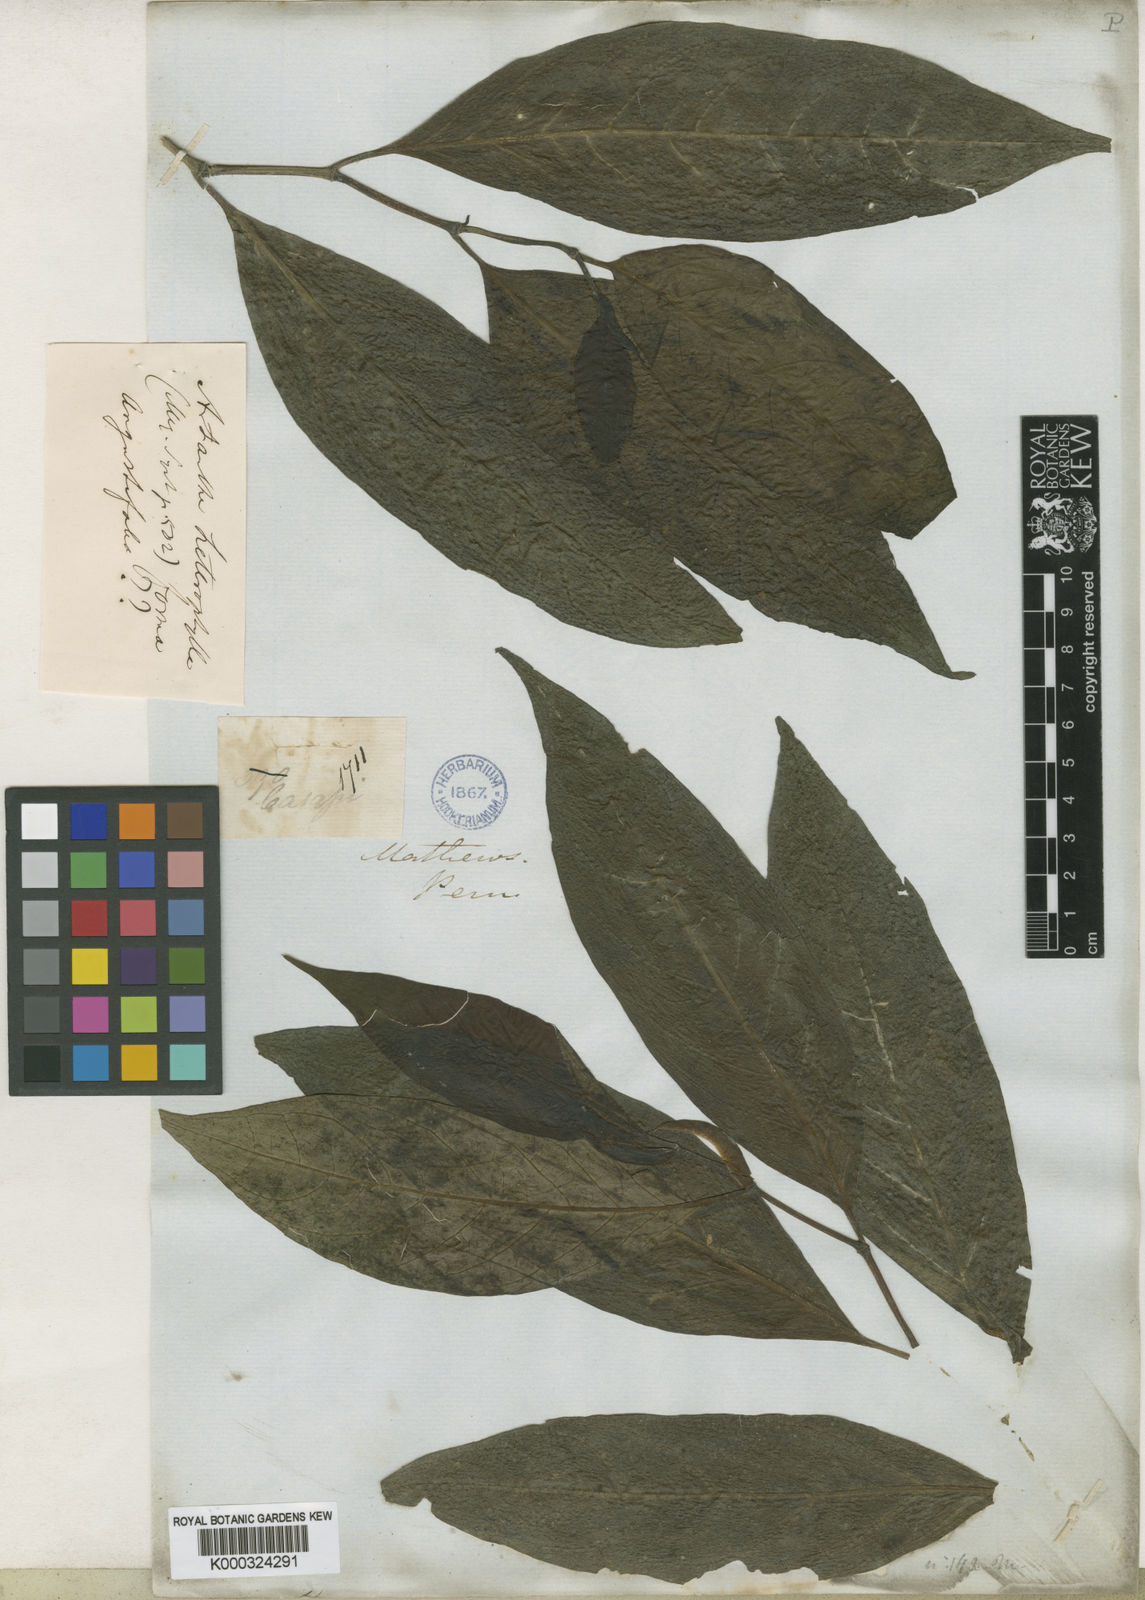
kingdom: Plantae
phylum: Tracheophyta
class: Magnoliopsida
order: Piperales
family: Piperaceae
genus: Piper
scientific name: Piper heterophyllum
